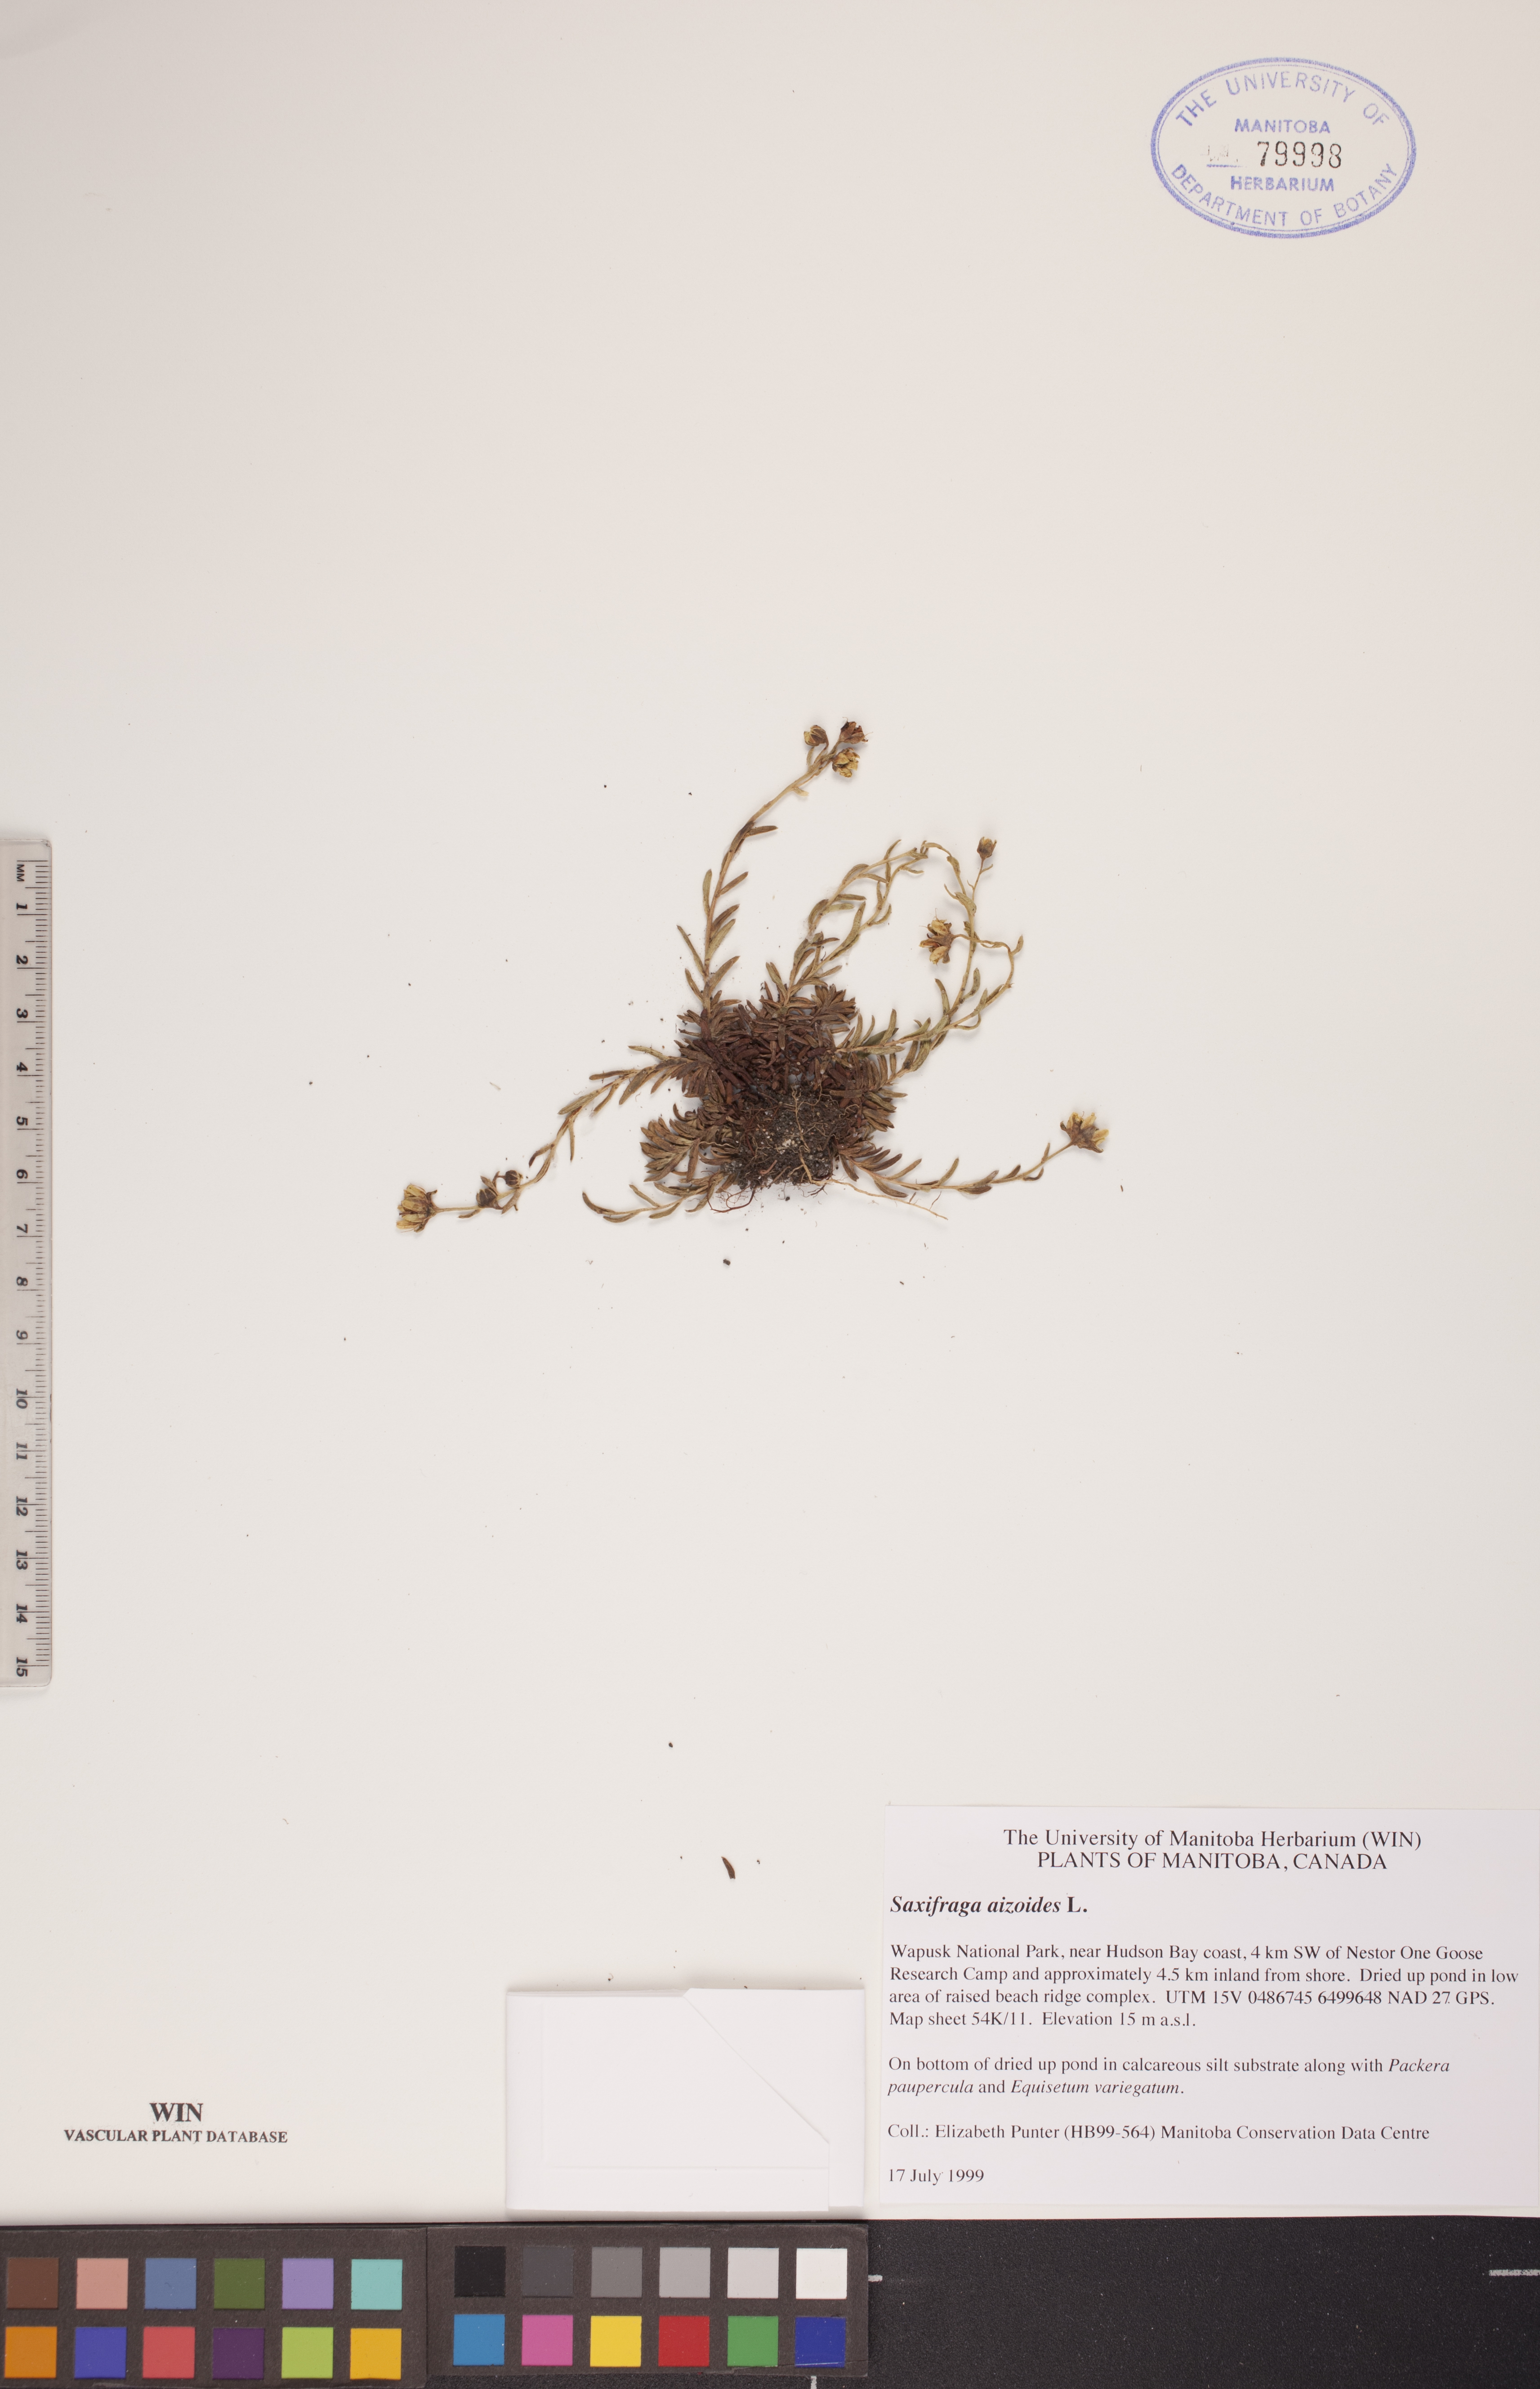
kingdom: Plantae
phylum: Tracheophyta
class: Magnoliopsida
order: Saxifragales
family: Saxifragaceae
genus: Saxifraga
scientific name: Saxifraga aizoides
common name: Yellow mountain saxifrage
